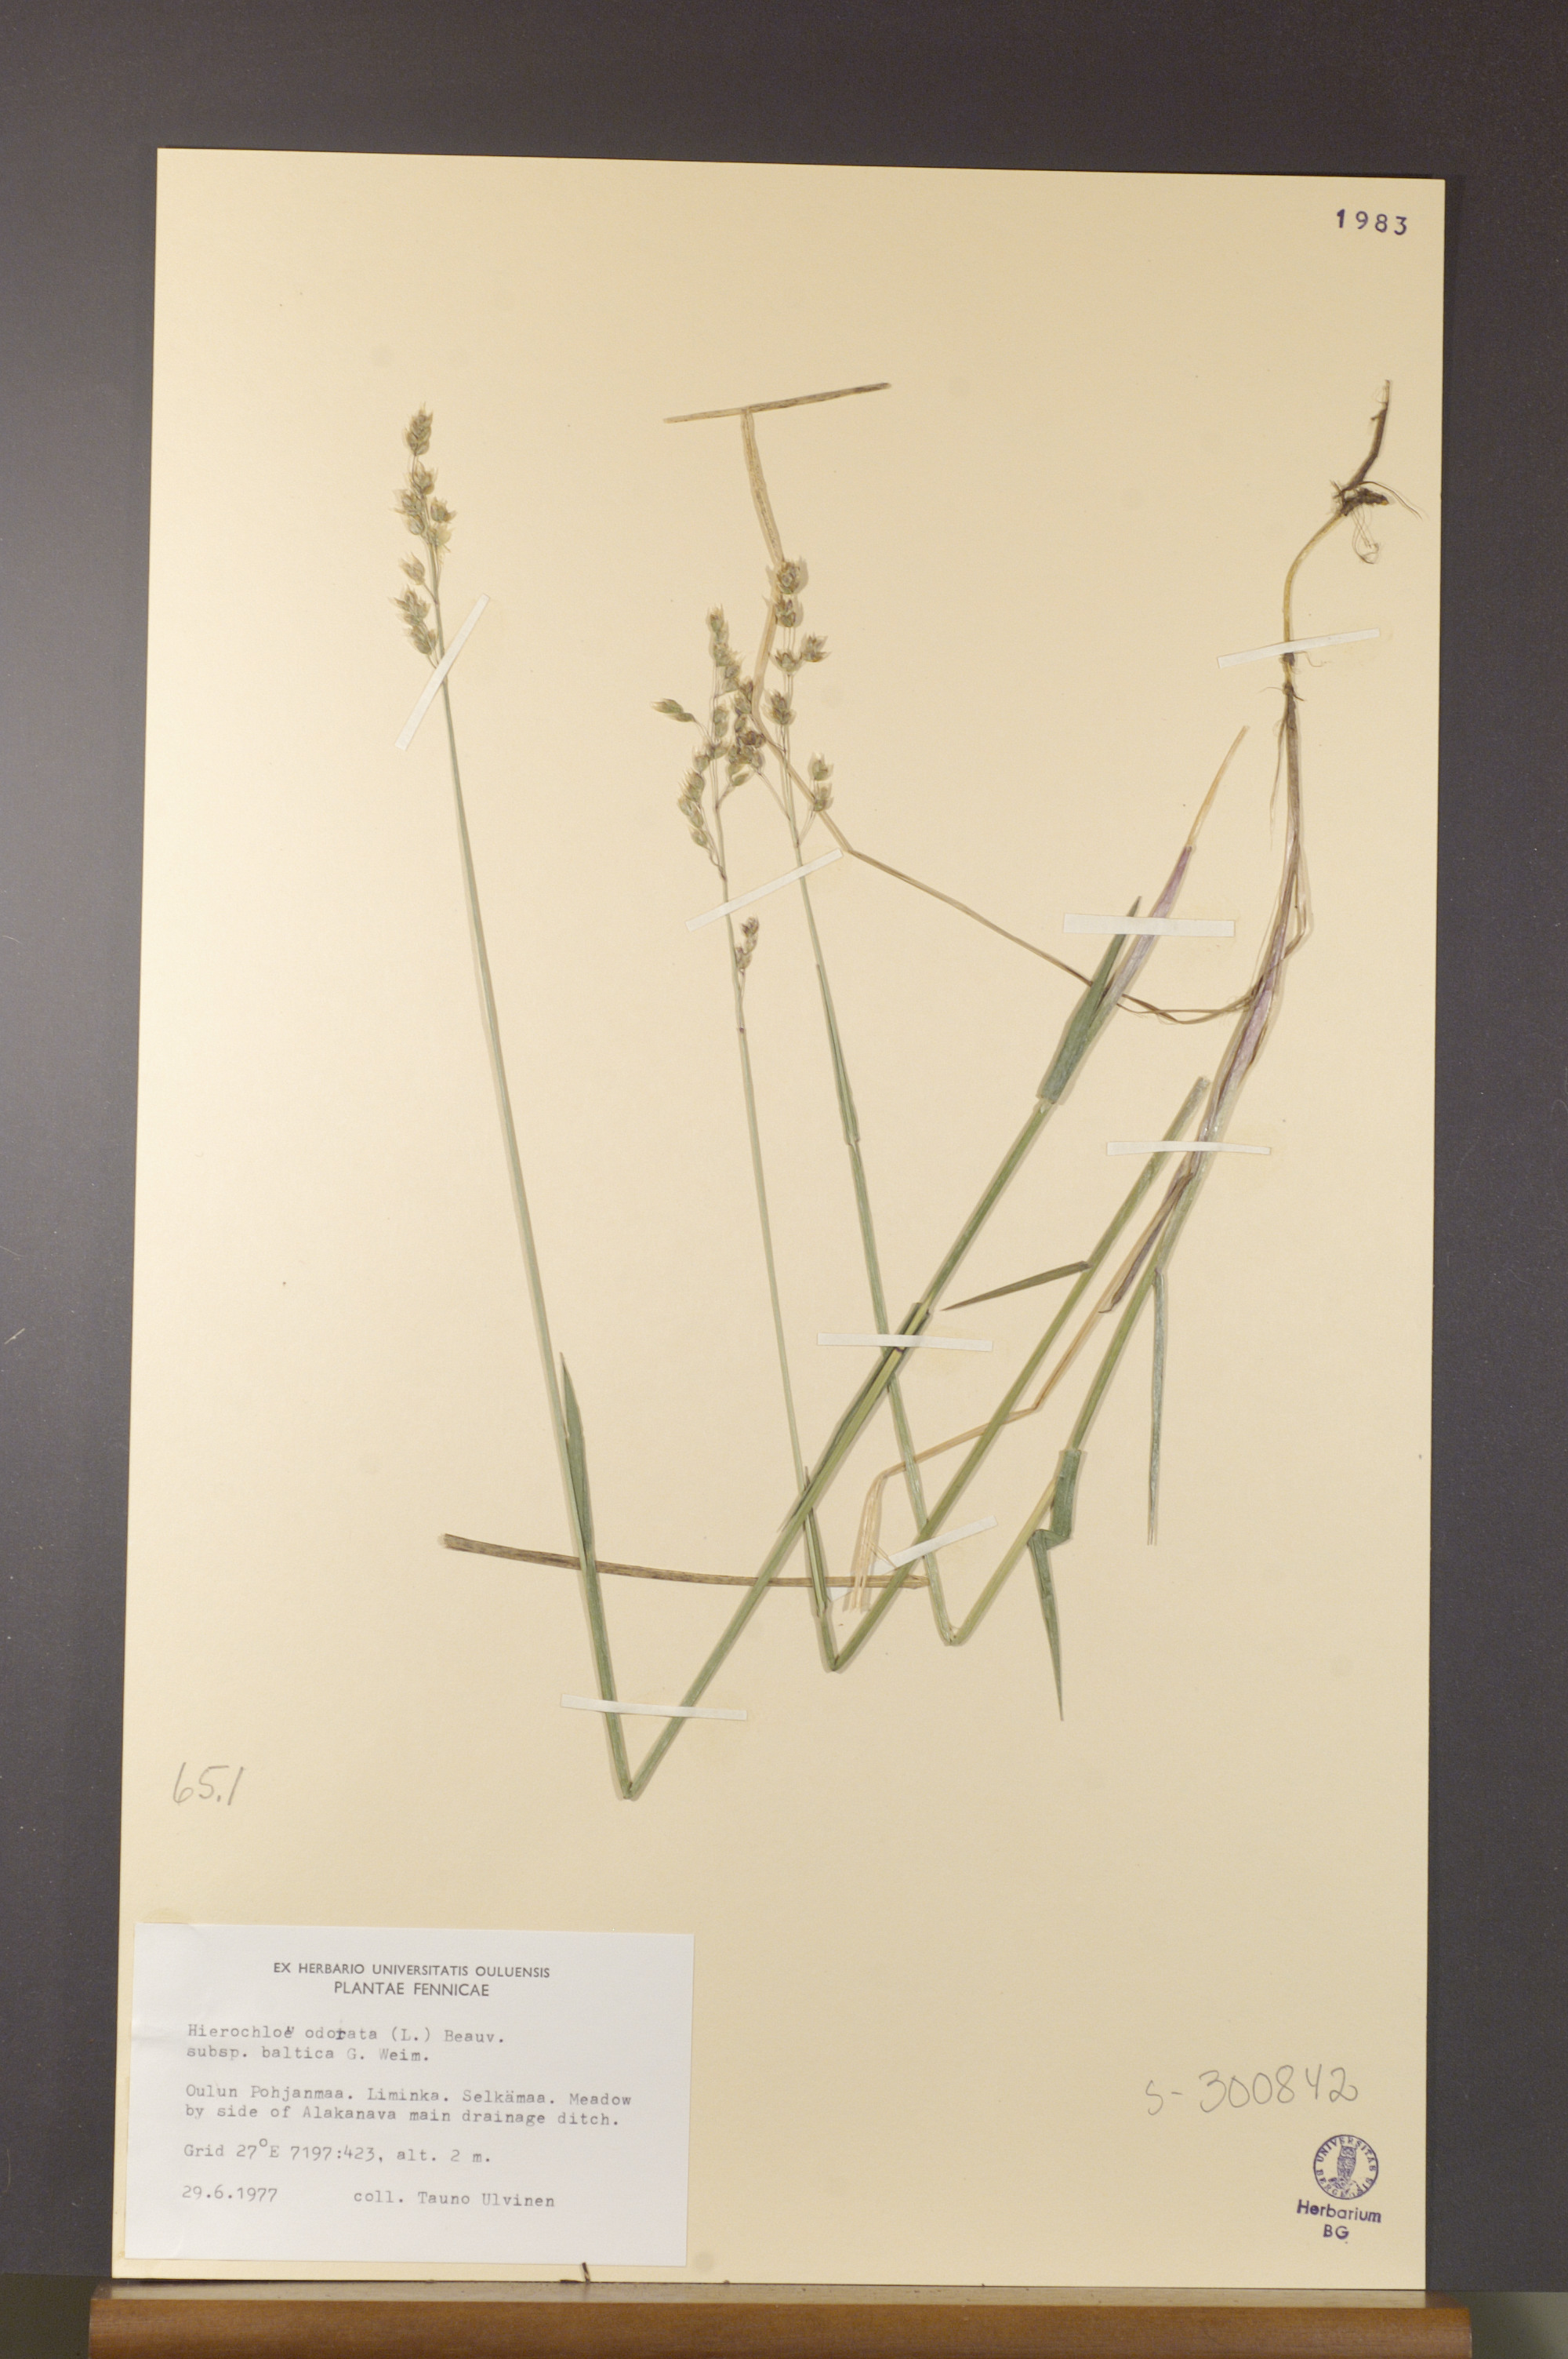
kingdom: Plantae
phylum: Tracheophyta
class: Liliopsida
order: Poales
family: Poaceae
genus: Anthoxanthum
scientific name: Anthoxanthum nitens
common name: Holy grass
